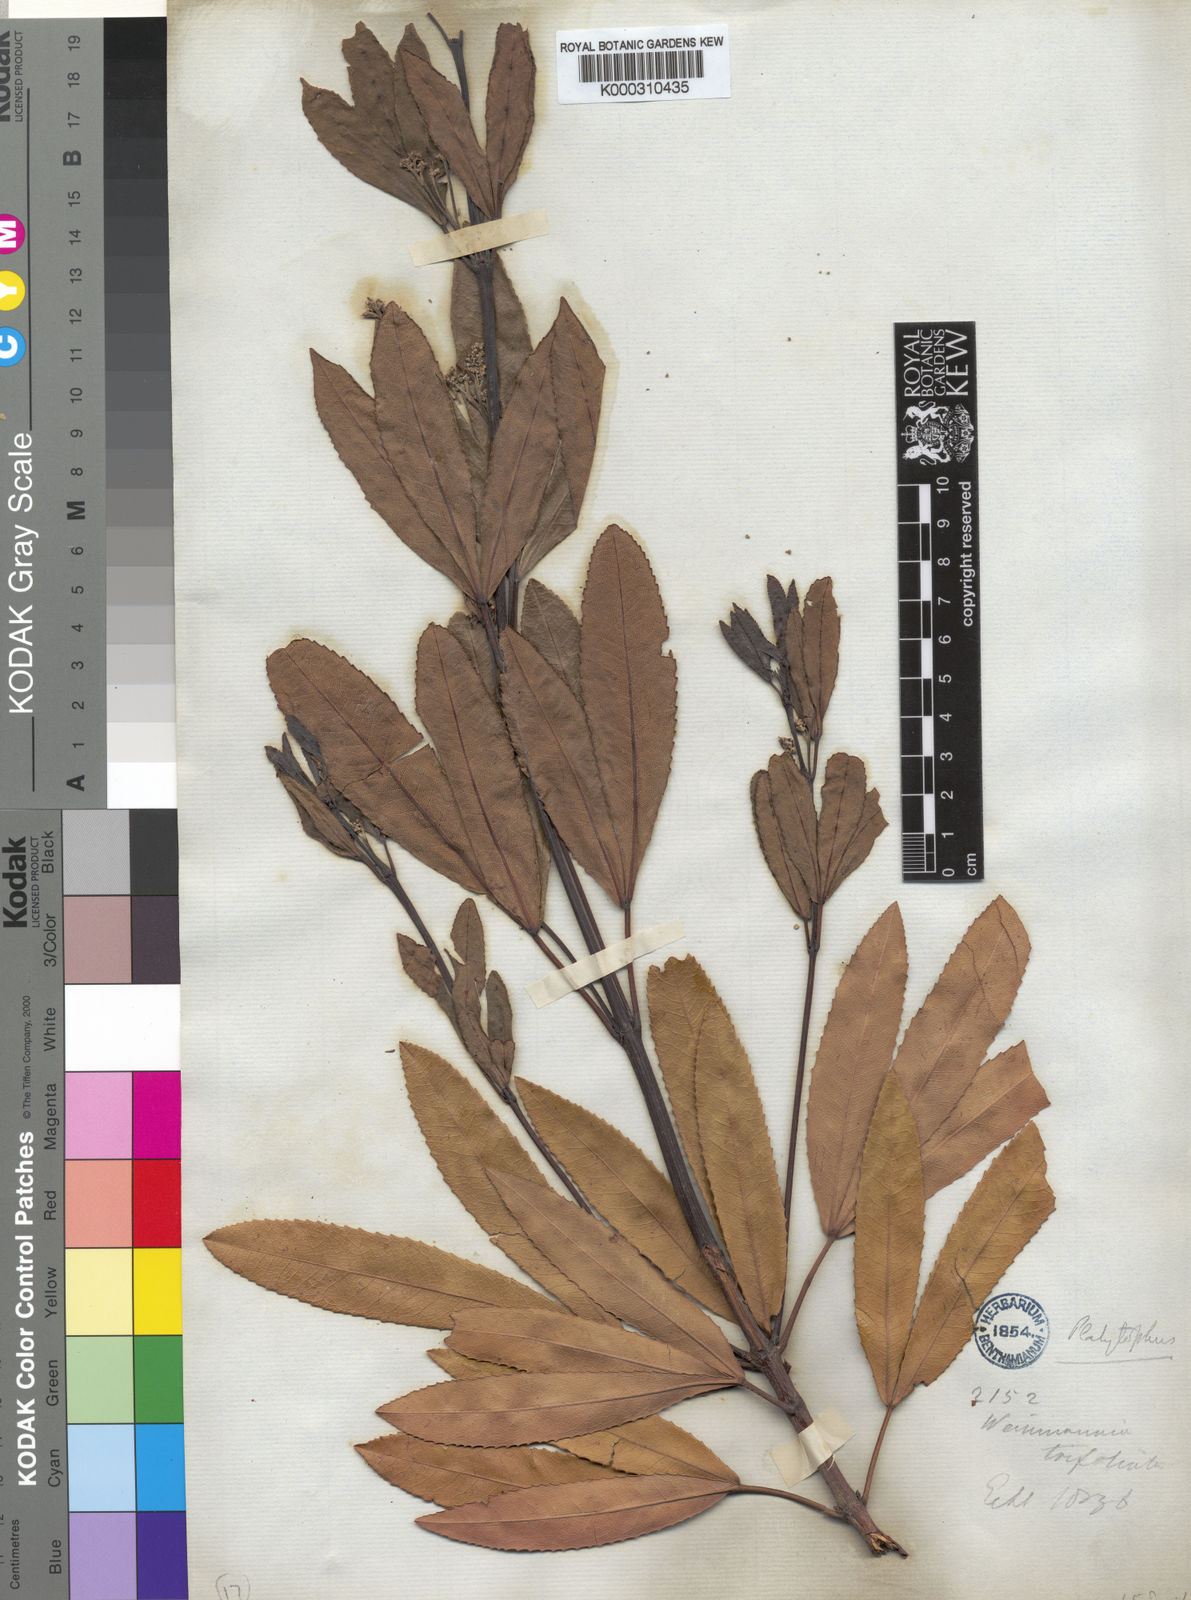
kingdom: Plantae
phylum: Tracheophyta
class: Magnoliopsida
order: Oxalidales
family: Cunoniaceae
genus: Platylophus
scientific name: Platylophus trifoliatus
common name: White alder
